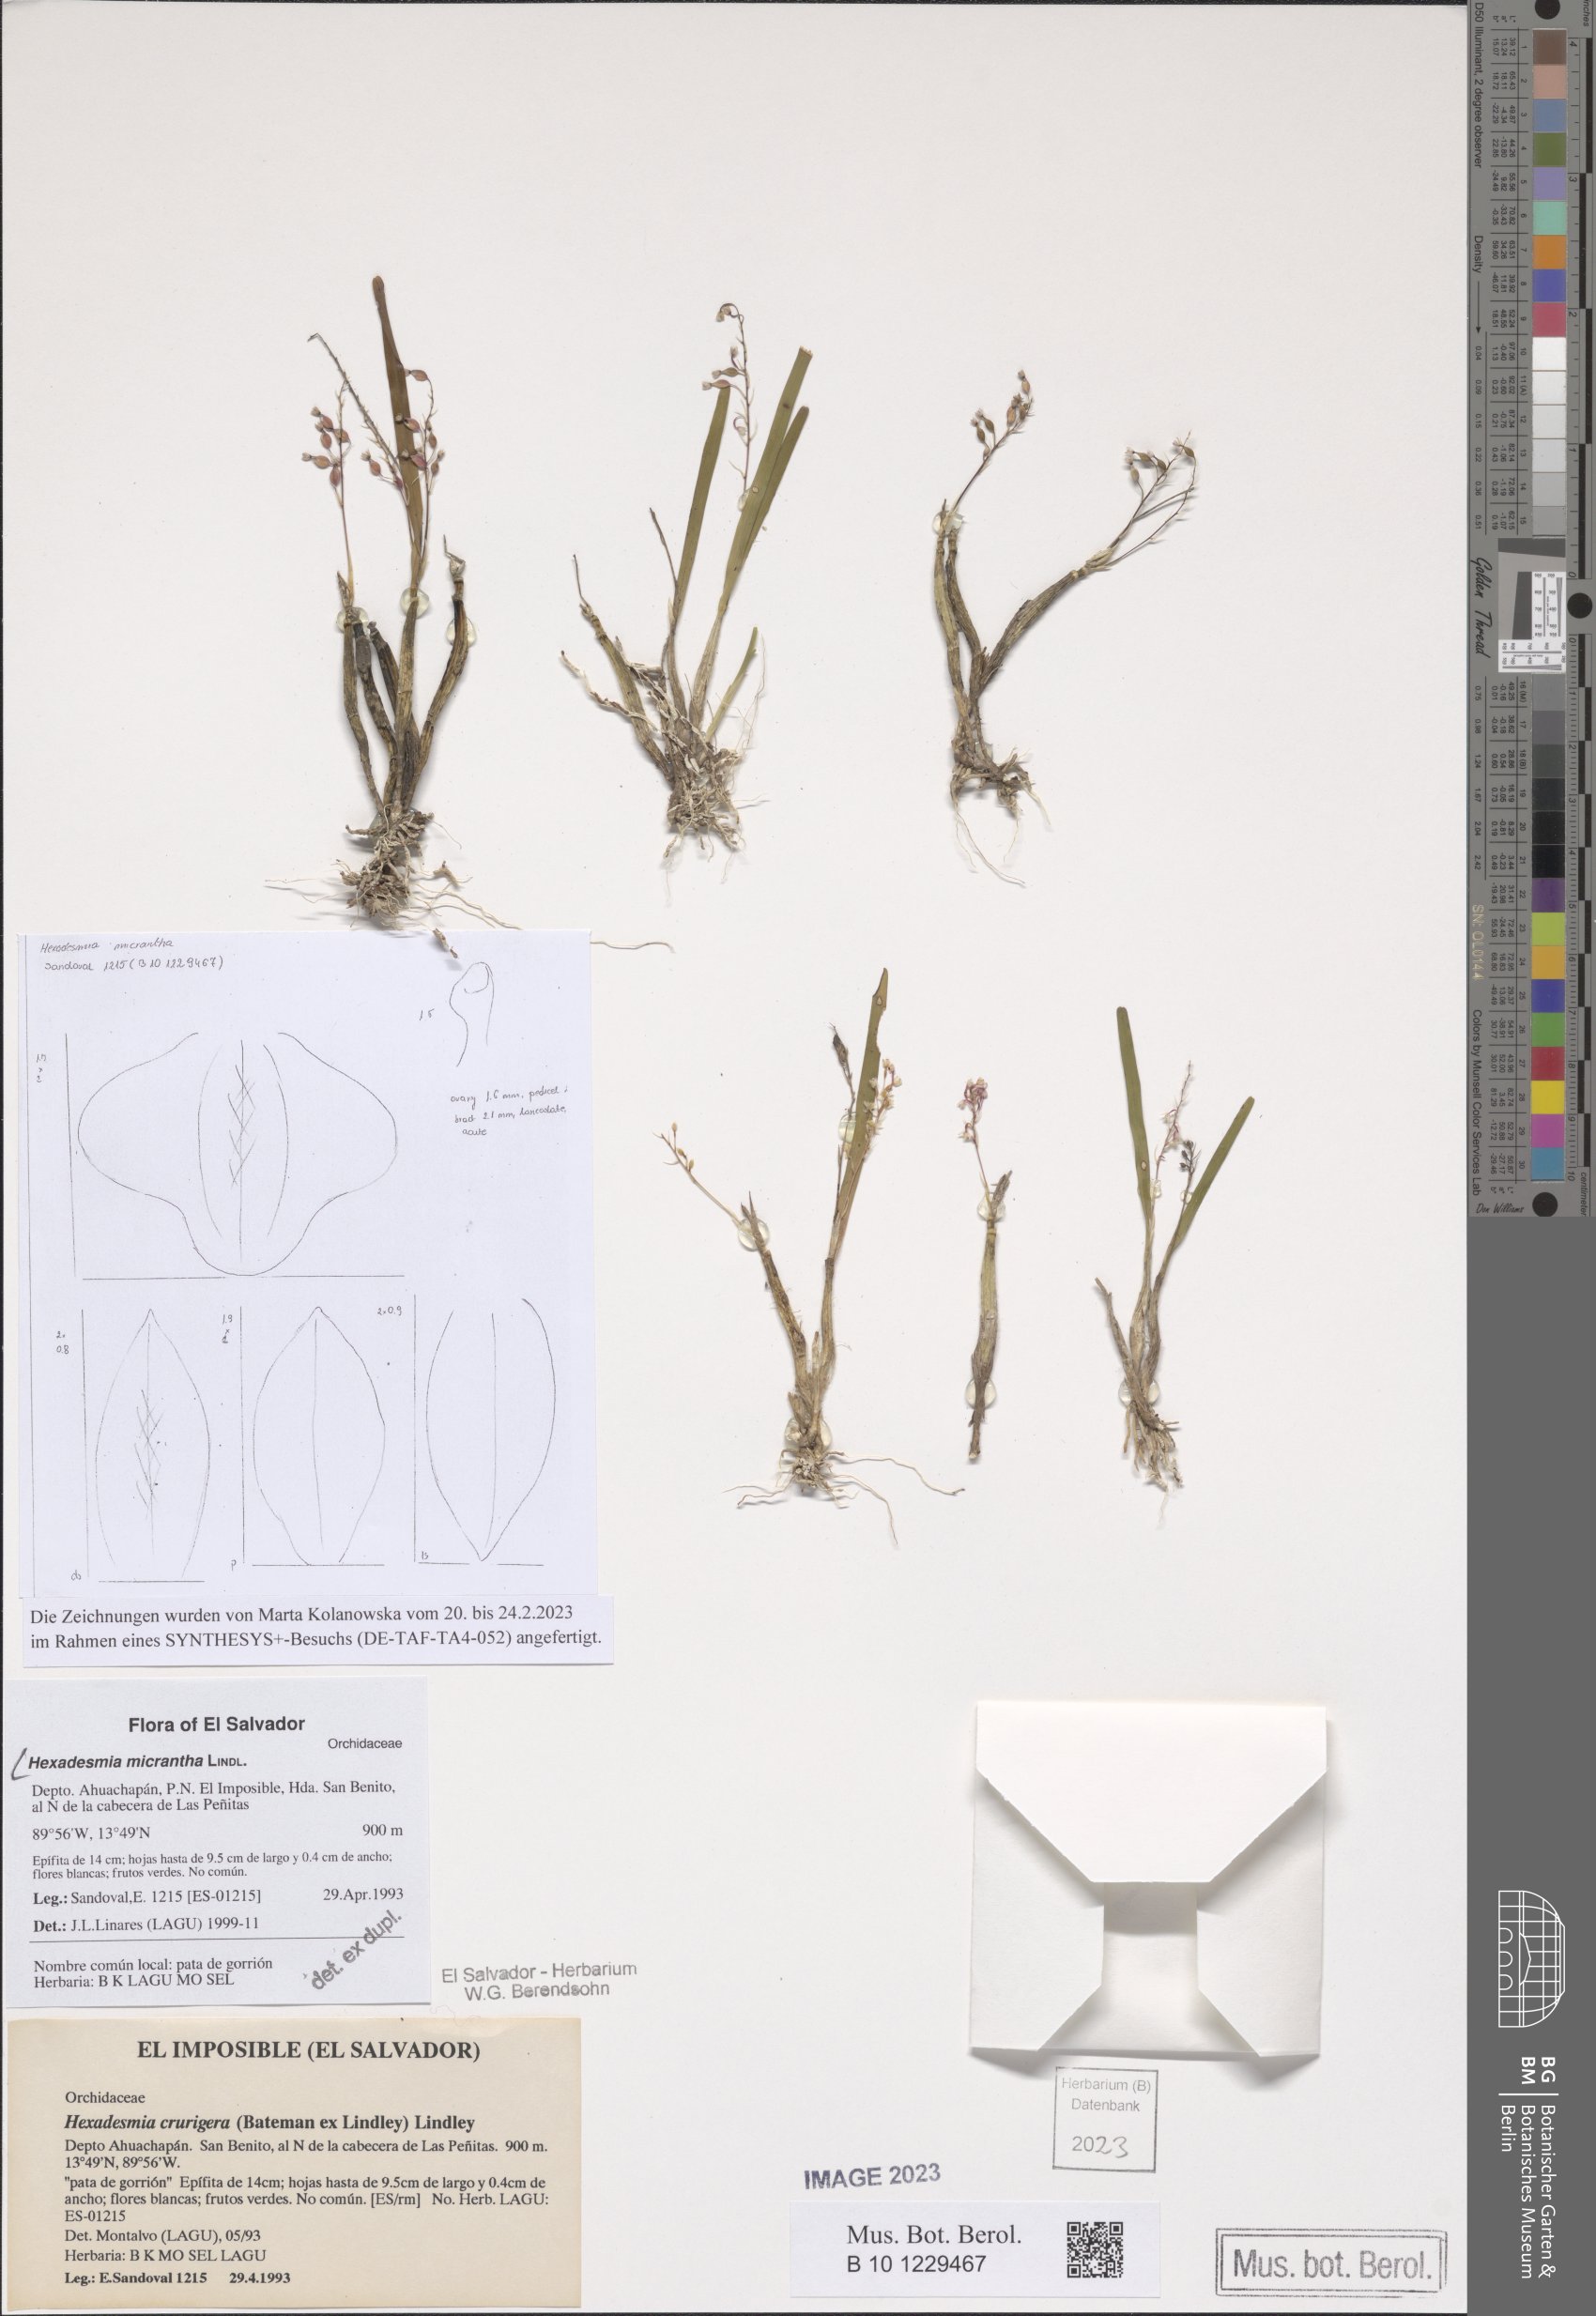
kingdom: Plantae
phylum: Tracheophyta
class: Liliopsida
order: Asparagales
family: Orchidaceae
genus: Scaphyglottis
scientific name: Scaphyglottis micrantha
